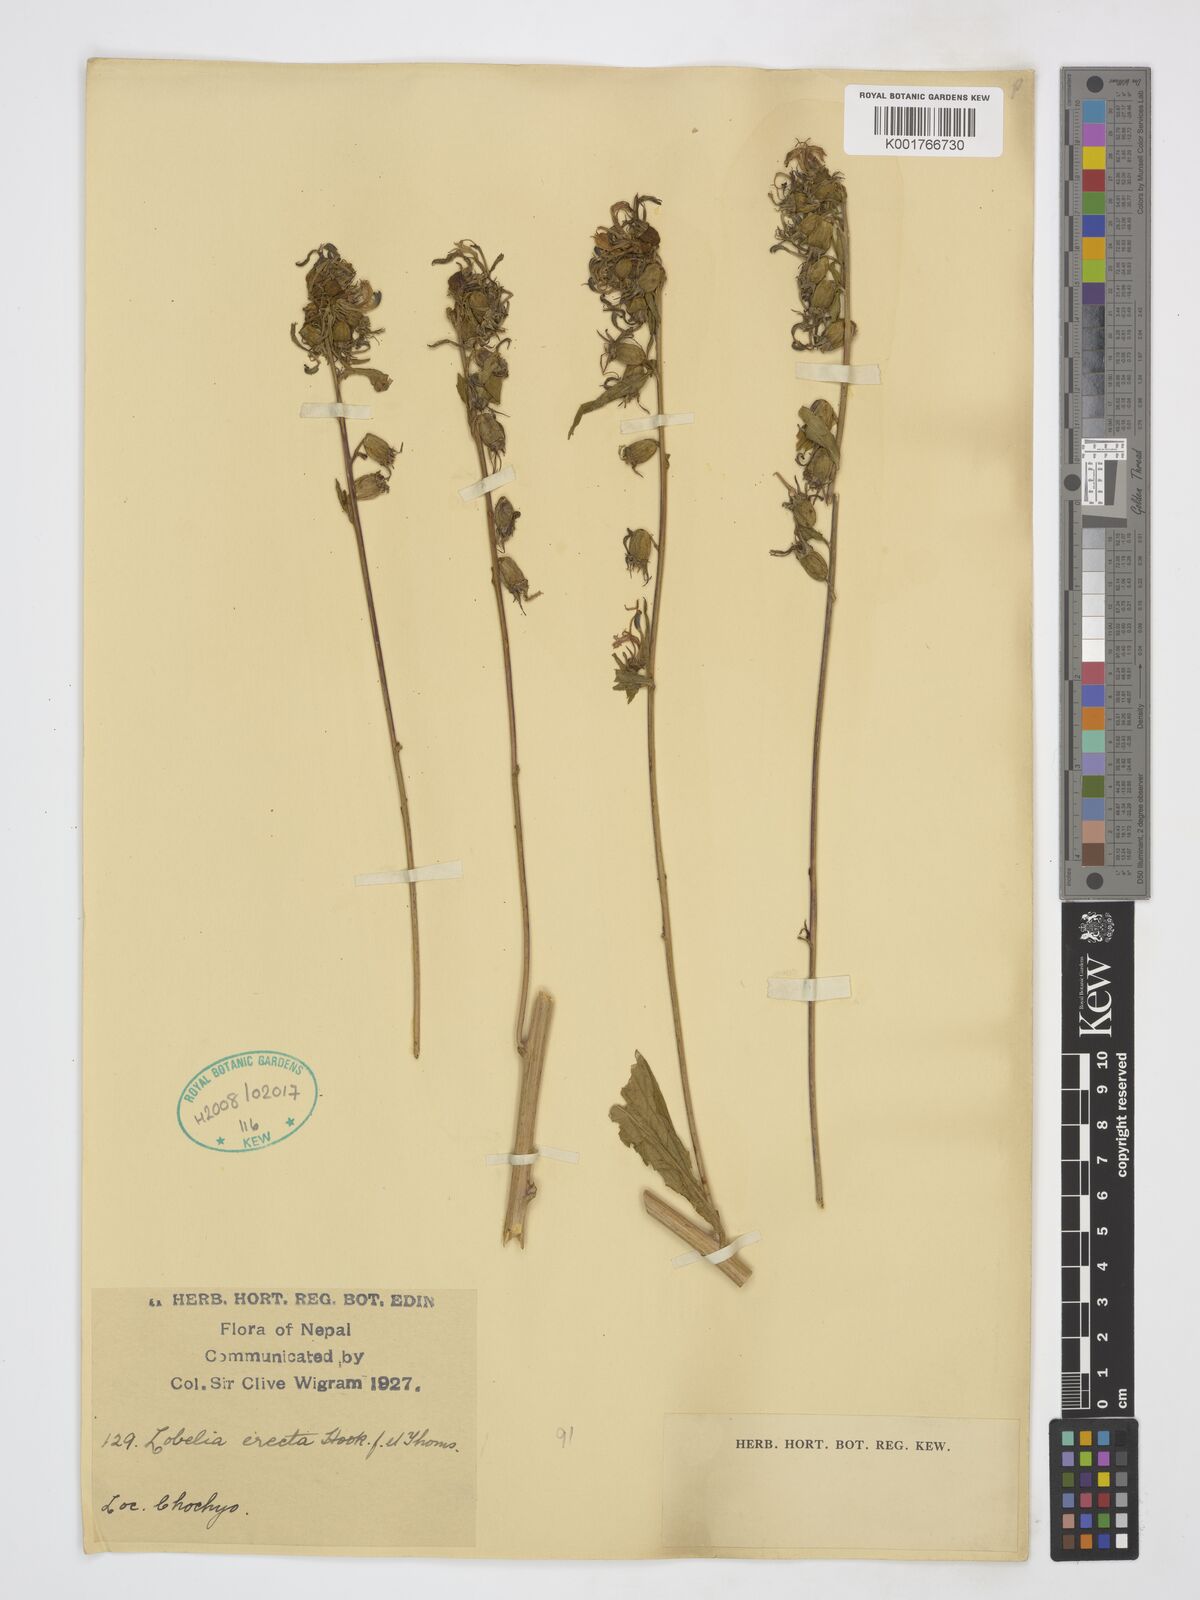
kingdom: Plantae
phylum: Tracheophyta
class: Magnoliopsida
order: Asterales
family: Campanulaceae
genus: Lobelia
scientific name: Lobelia erectiuscula
